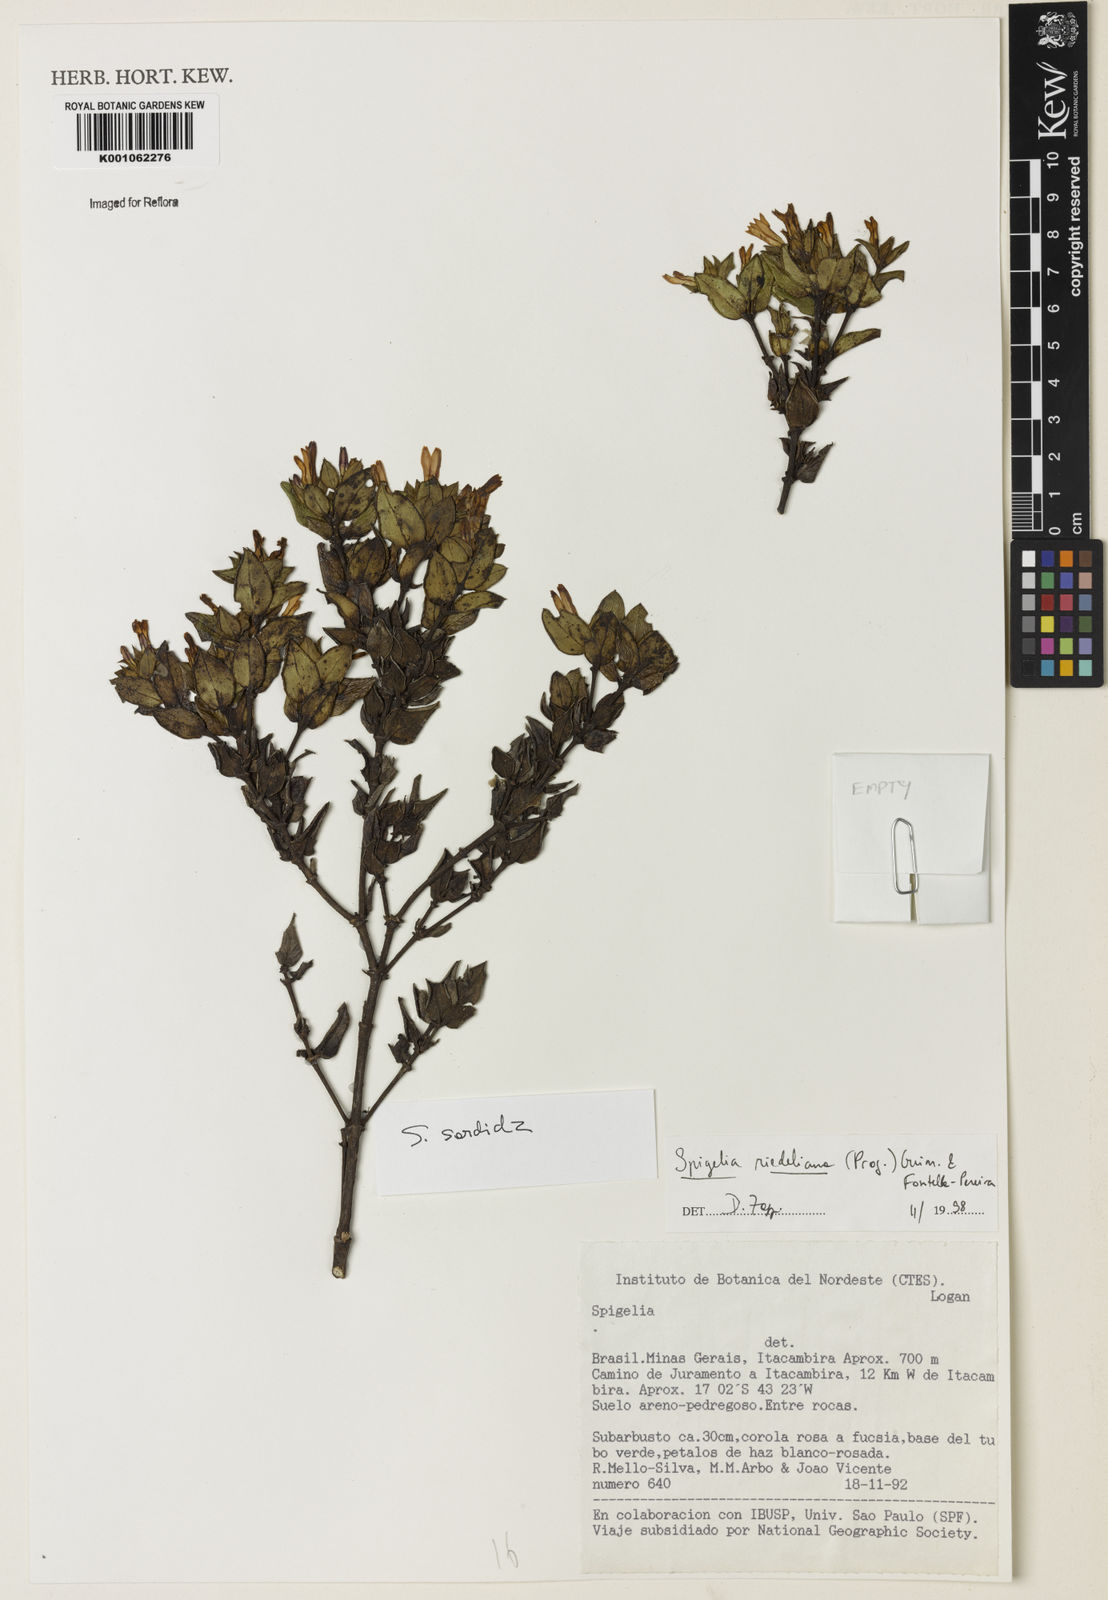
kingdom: Plantae
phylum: Tracheophyta
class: Magnoliopsida
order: Gentianales
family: Loganiaceae
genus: Spigelia
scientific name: Spigelia riedeliana
